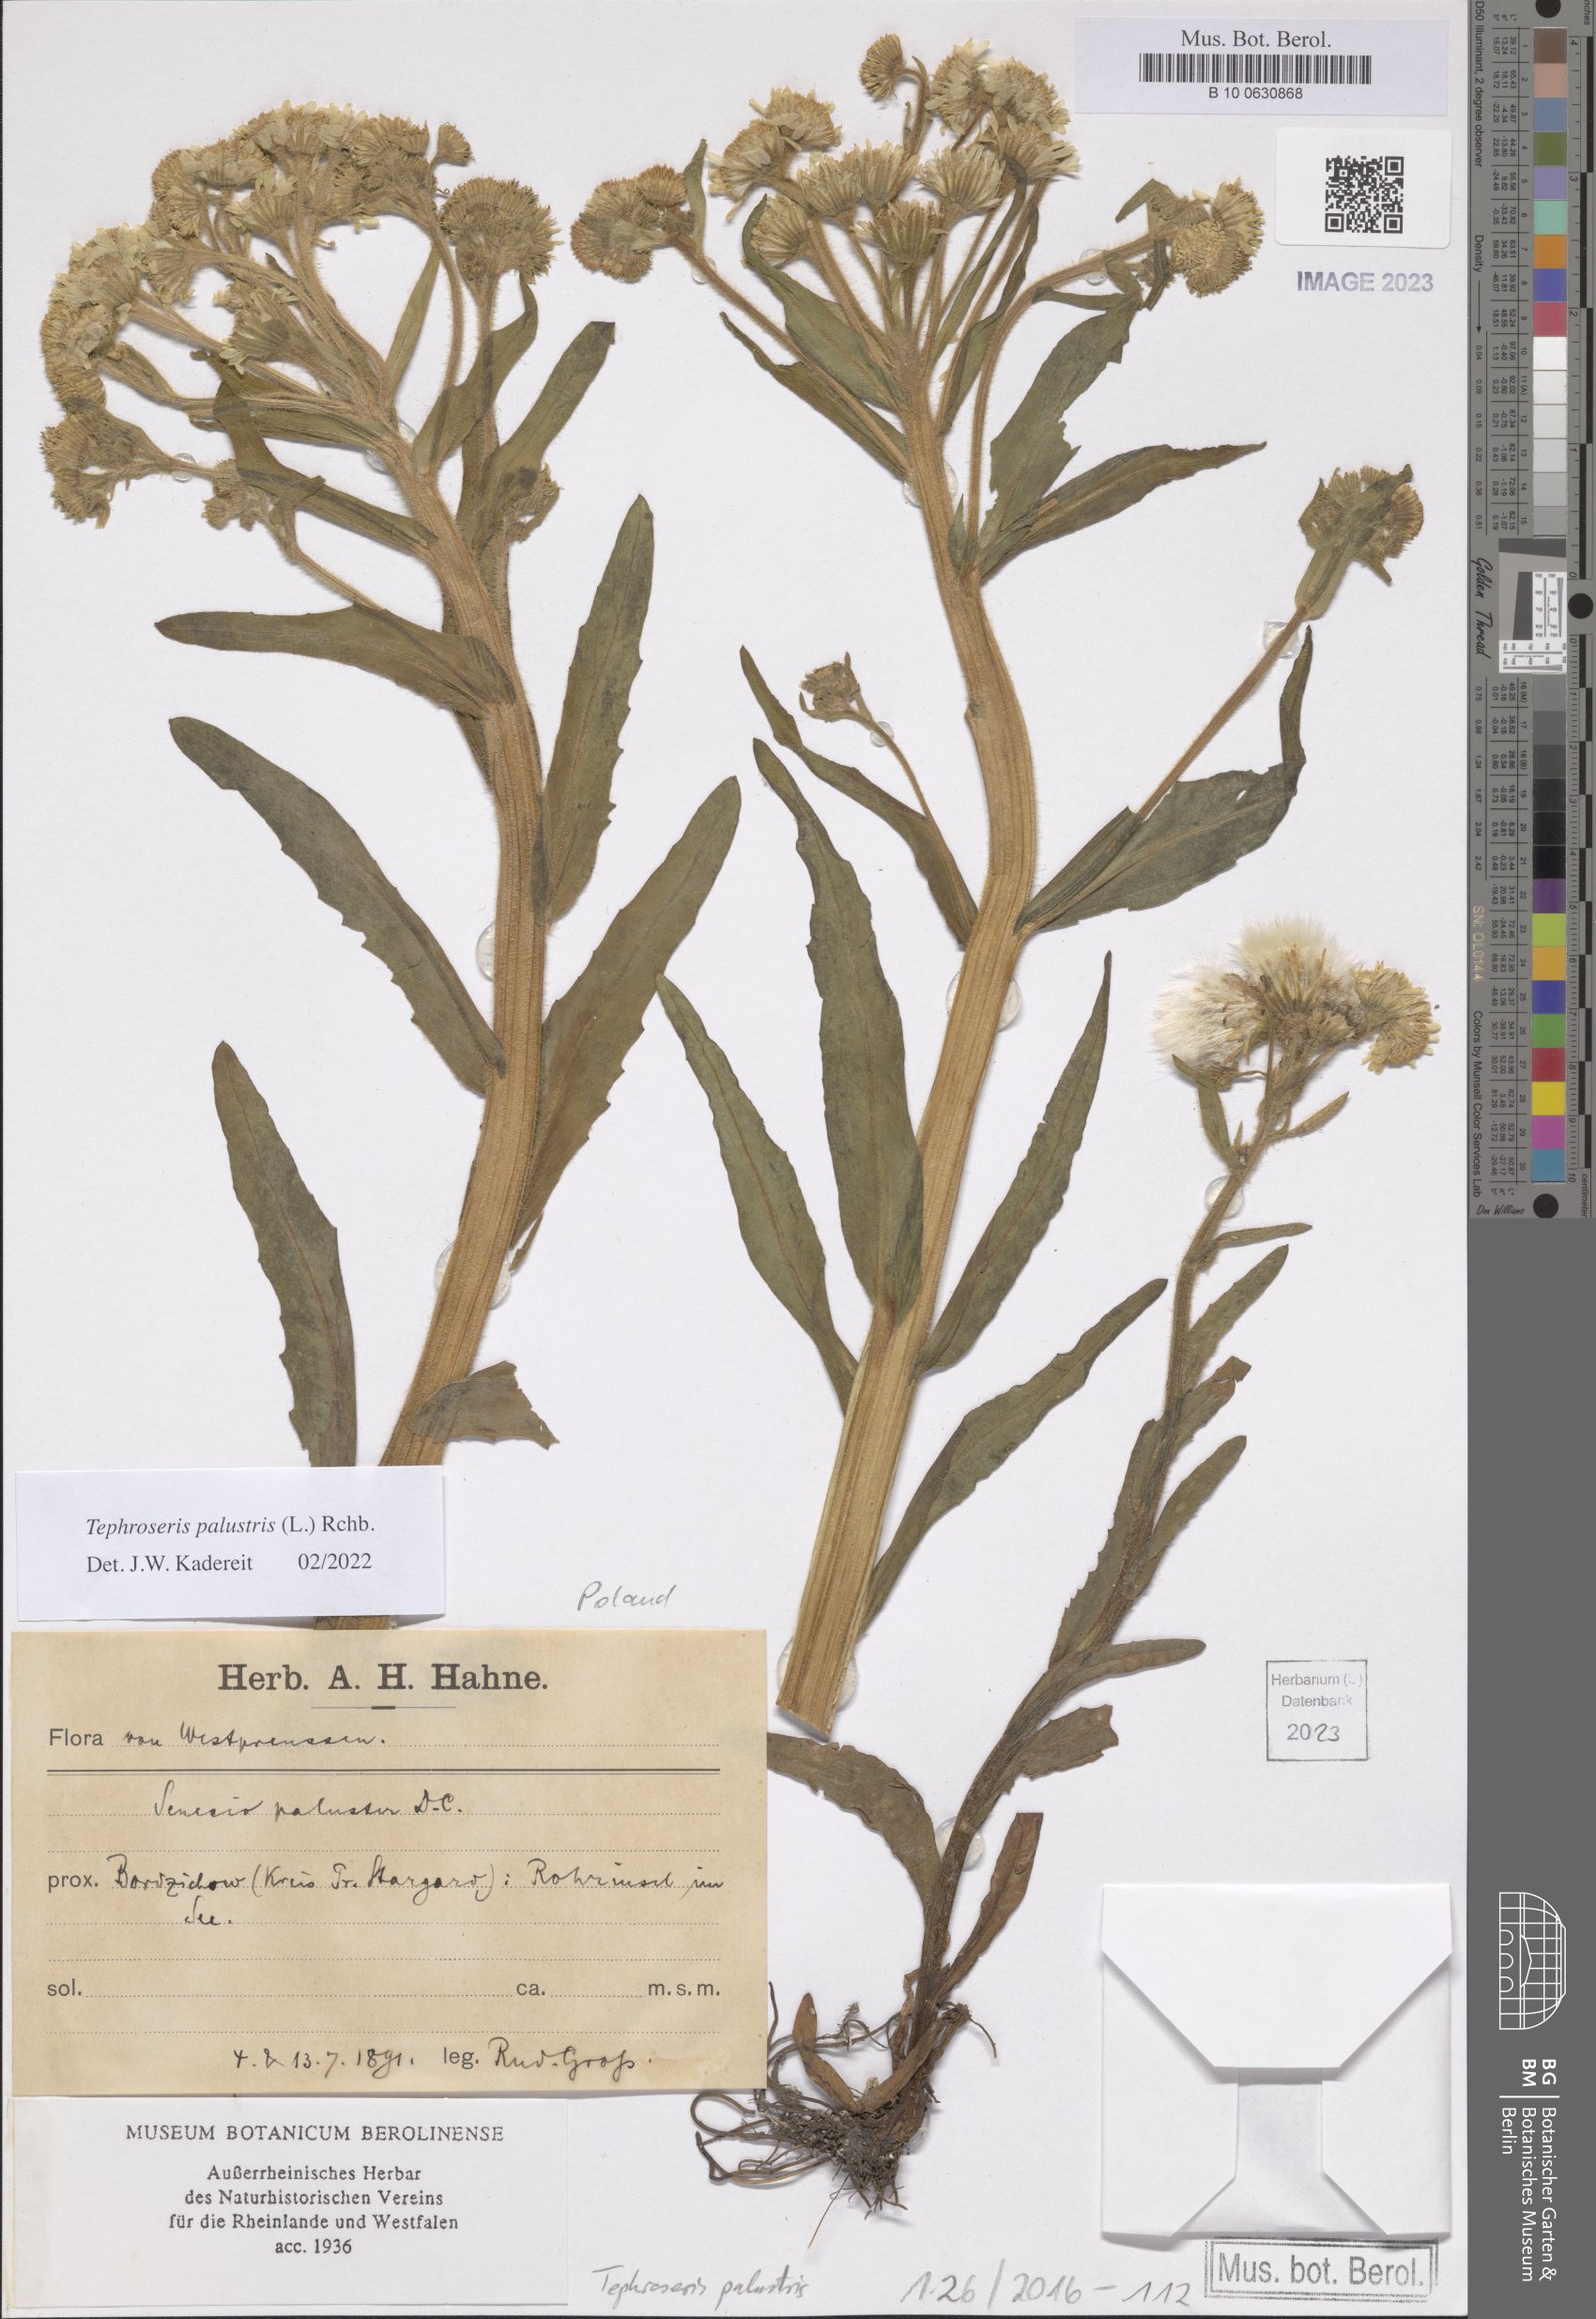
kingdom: Plantae
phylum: Tracheophyta
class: Magnoliopsida
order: Asterales
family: Asteraceae
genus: Tephroseris
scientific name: Tephroseris palustris
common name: Marsh fleawort
